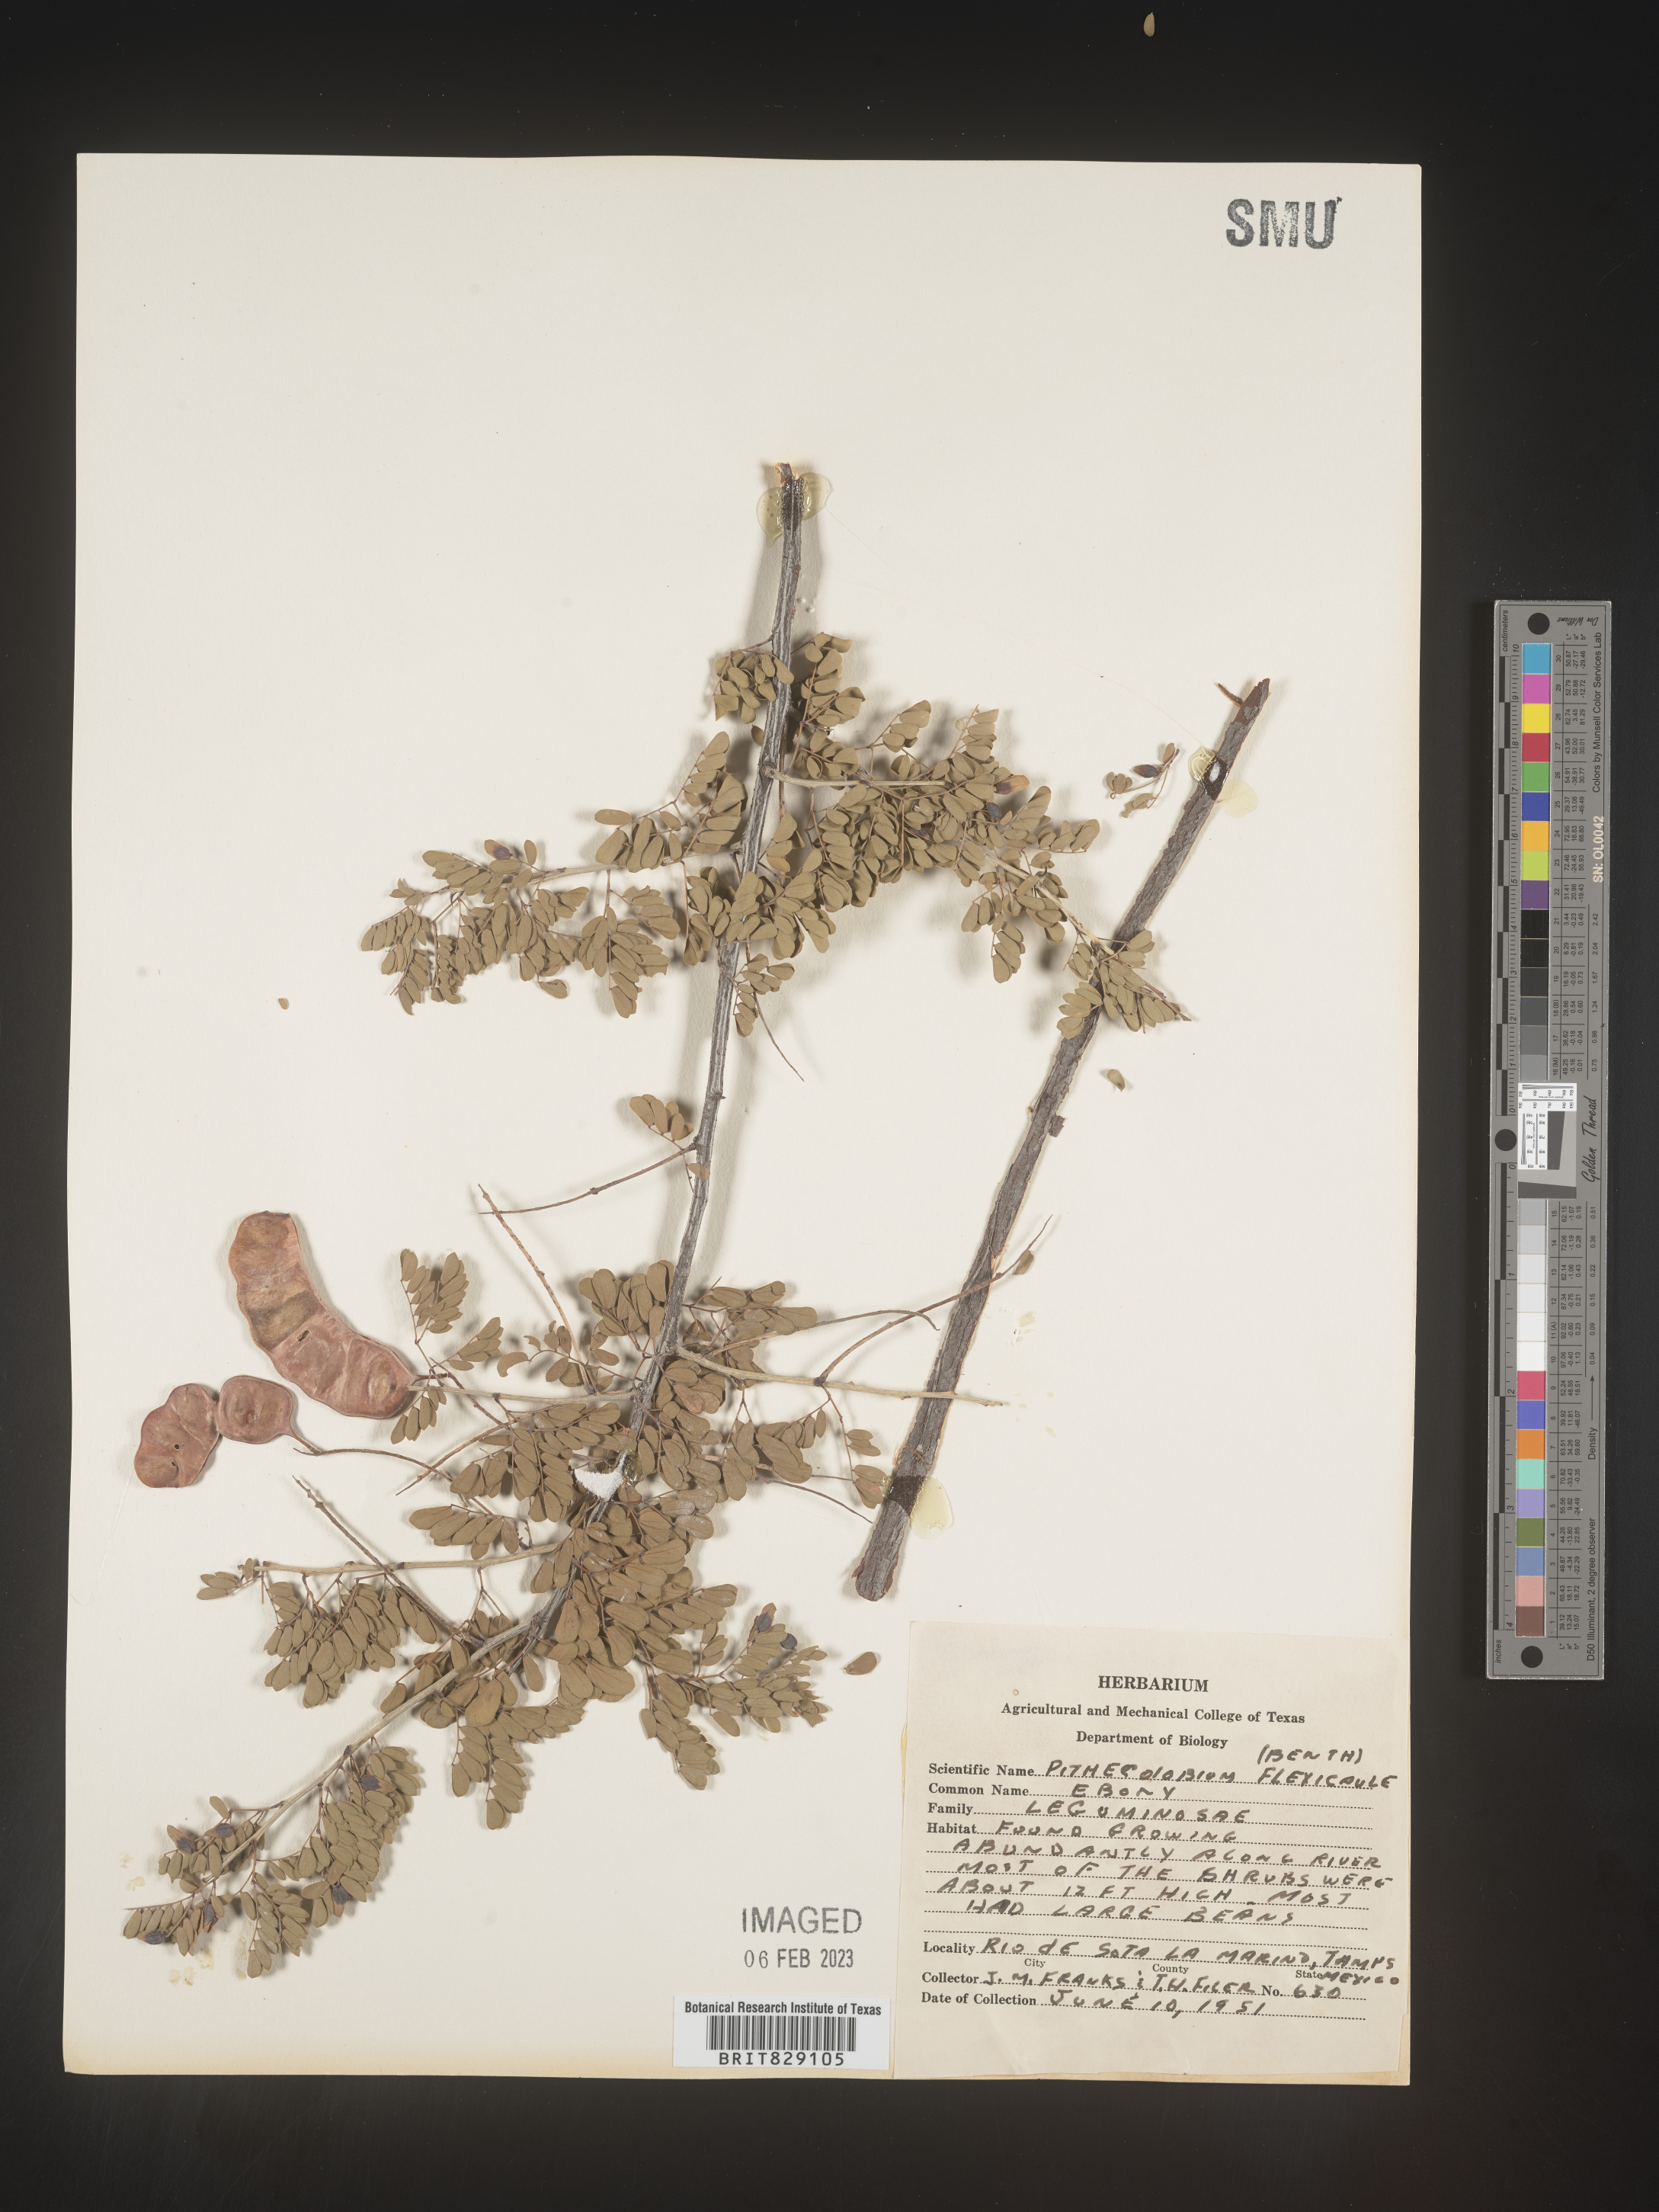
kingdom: Plantae
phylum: Tracheophyta
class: Magnoliopsida
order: Fabales
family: Fabaceae
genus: Pithecellobium
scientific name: Pithecellobium
